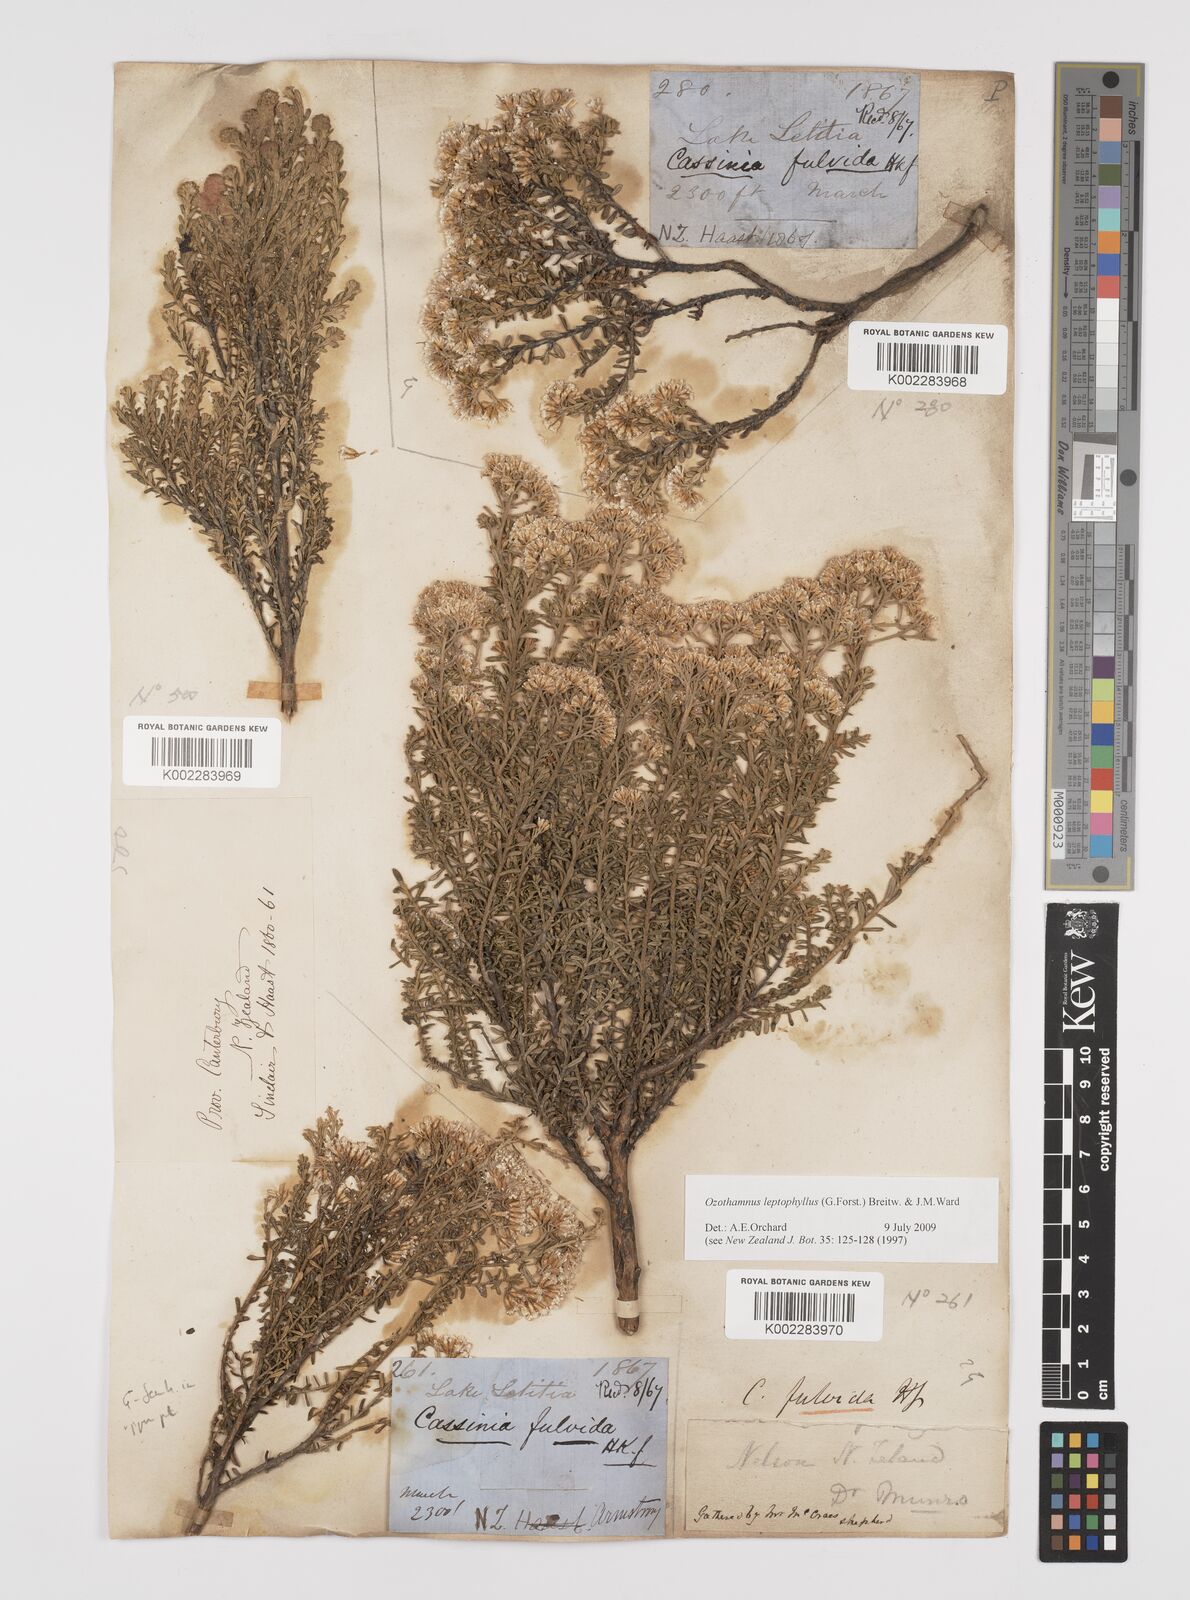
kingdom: Plantae
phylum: Tracheophyta
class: Magnoliopsida
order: Asterales
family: Asteraceae
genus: Ozothamnus
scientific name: Ozothamnus leptophyllus
